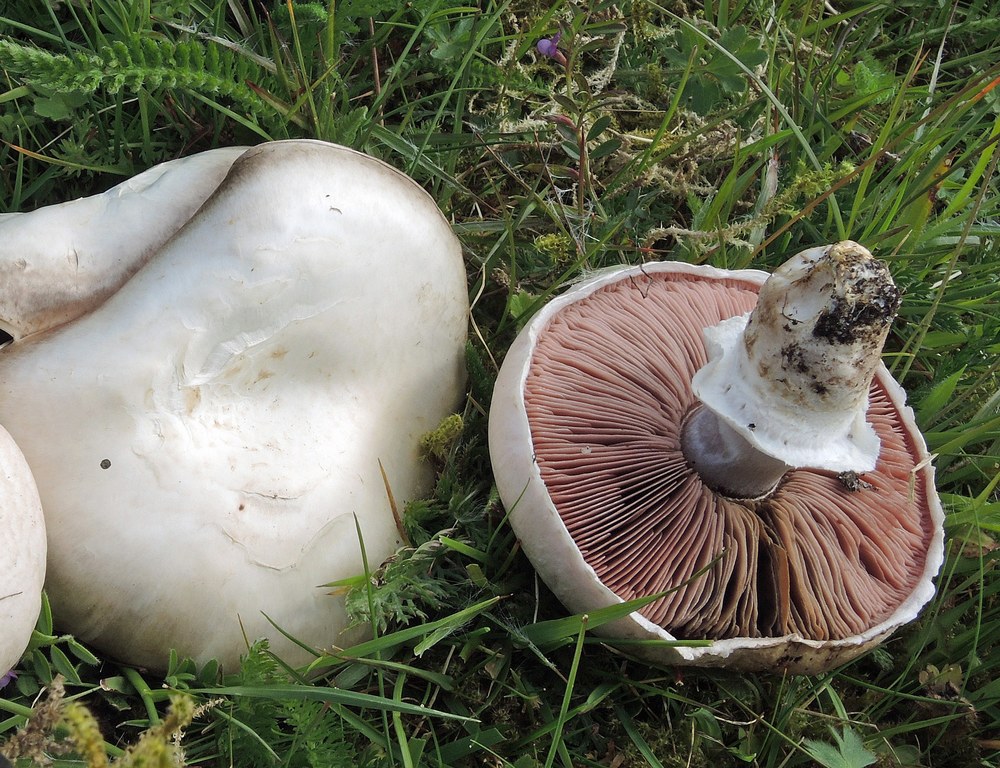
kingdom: Fungi
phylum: Basidiomycota
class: Agaricomycetes
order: Agaricales
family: Agaricaceae
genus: Agaricus
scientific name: Agaricus campestris
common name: mark-champignon
